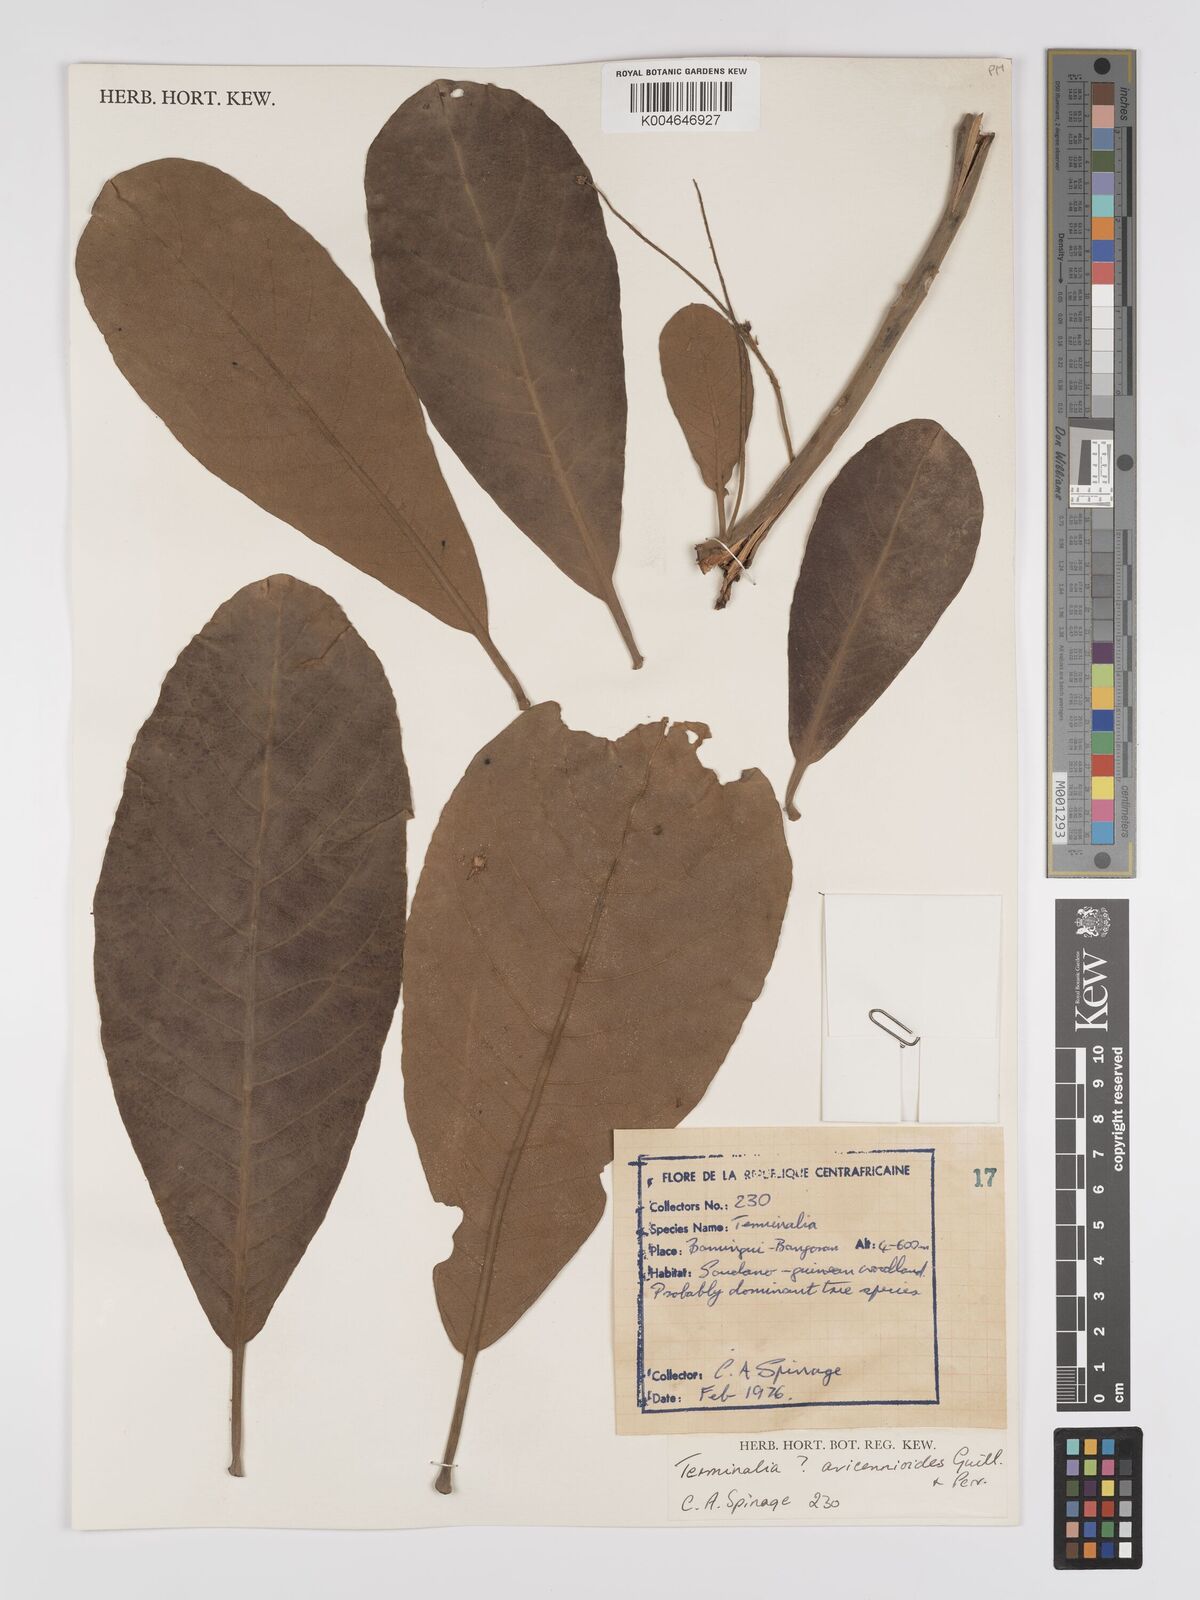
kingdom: Plantae
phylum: Tracheophyta
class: Magnoliopsida
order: Myrtales
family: Combretaceae
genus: Terminalia
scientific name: Terminalia avicennioides
